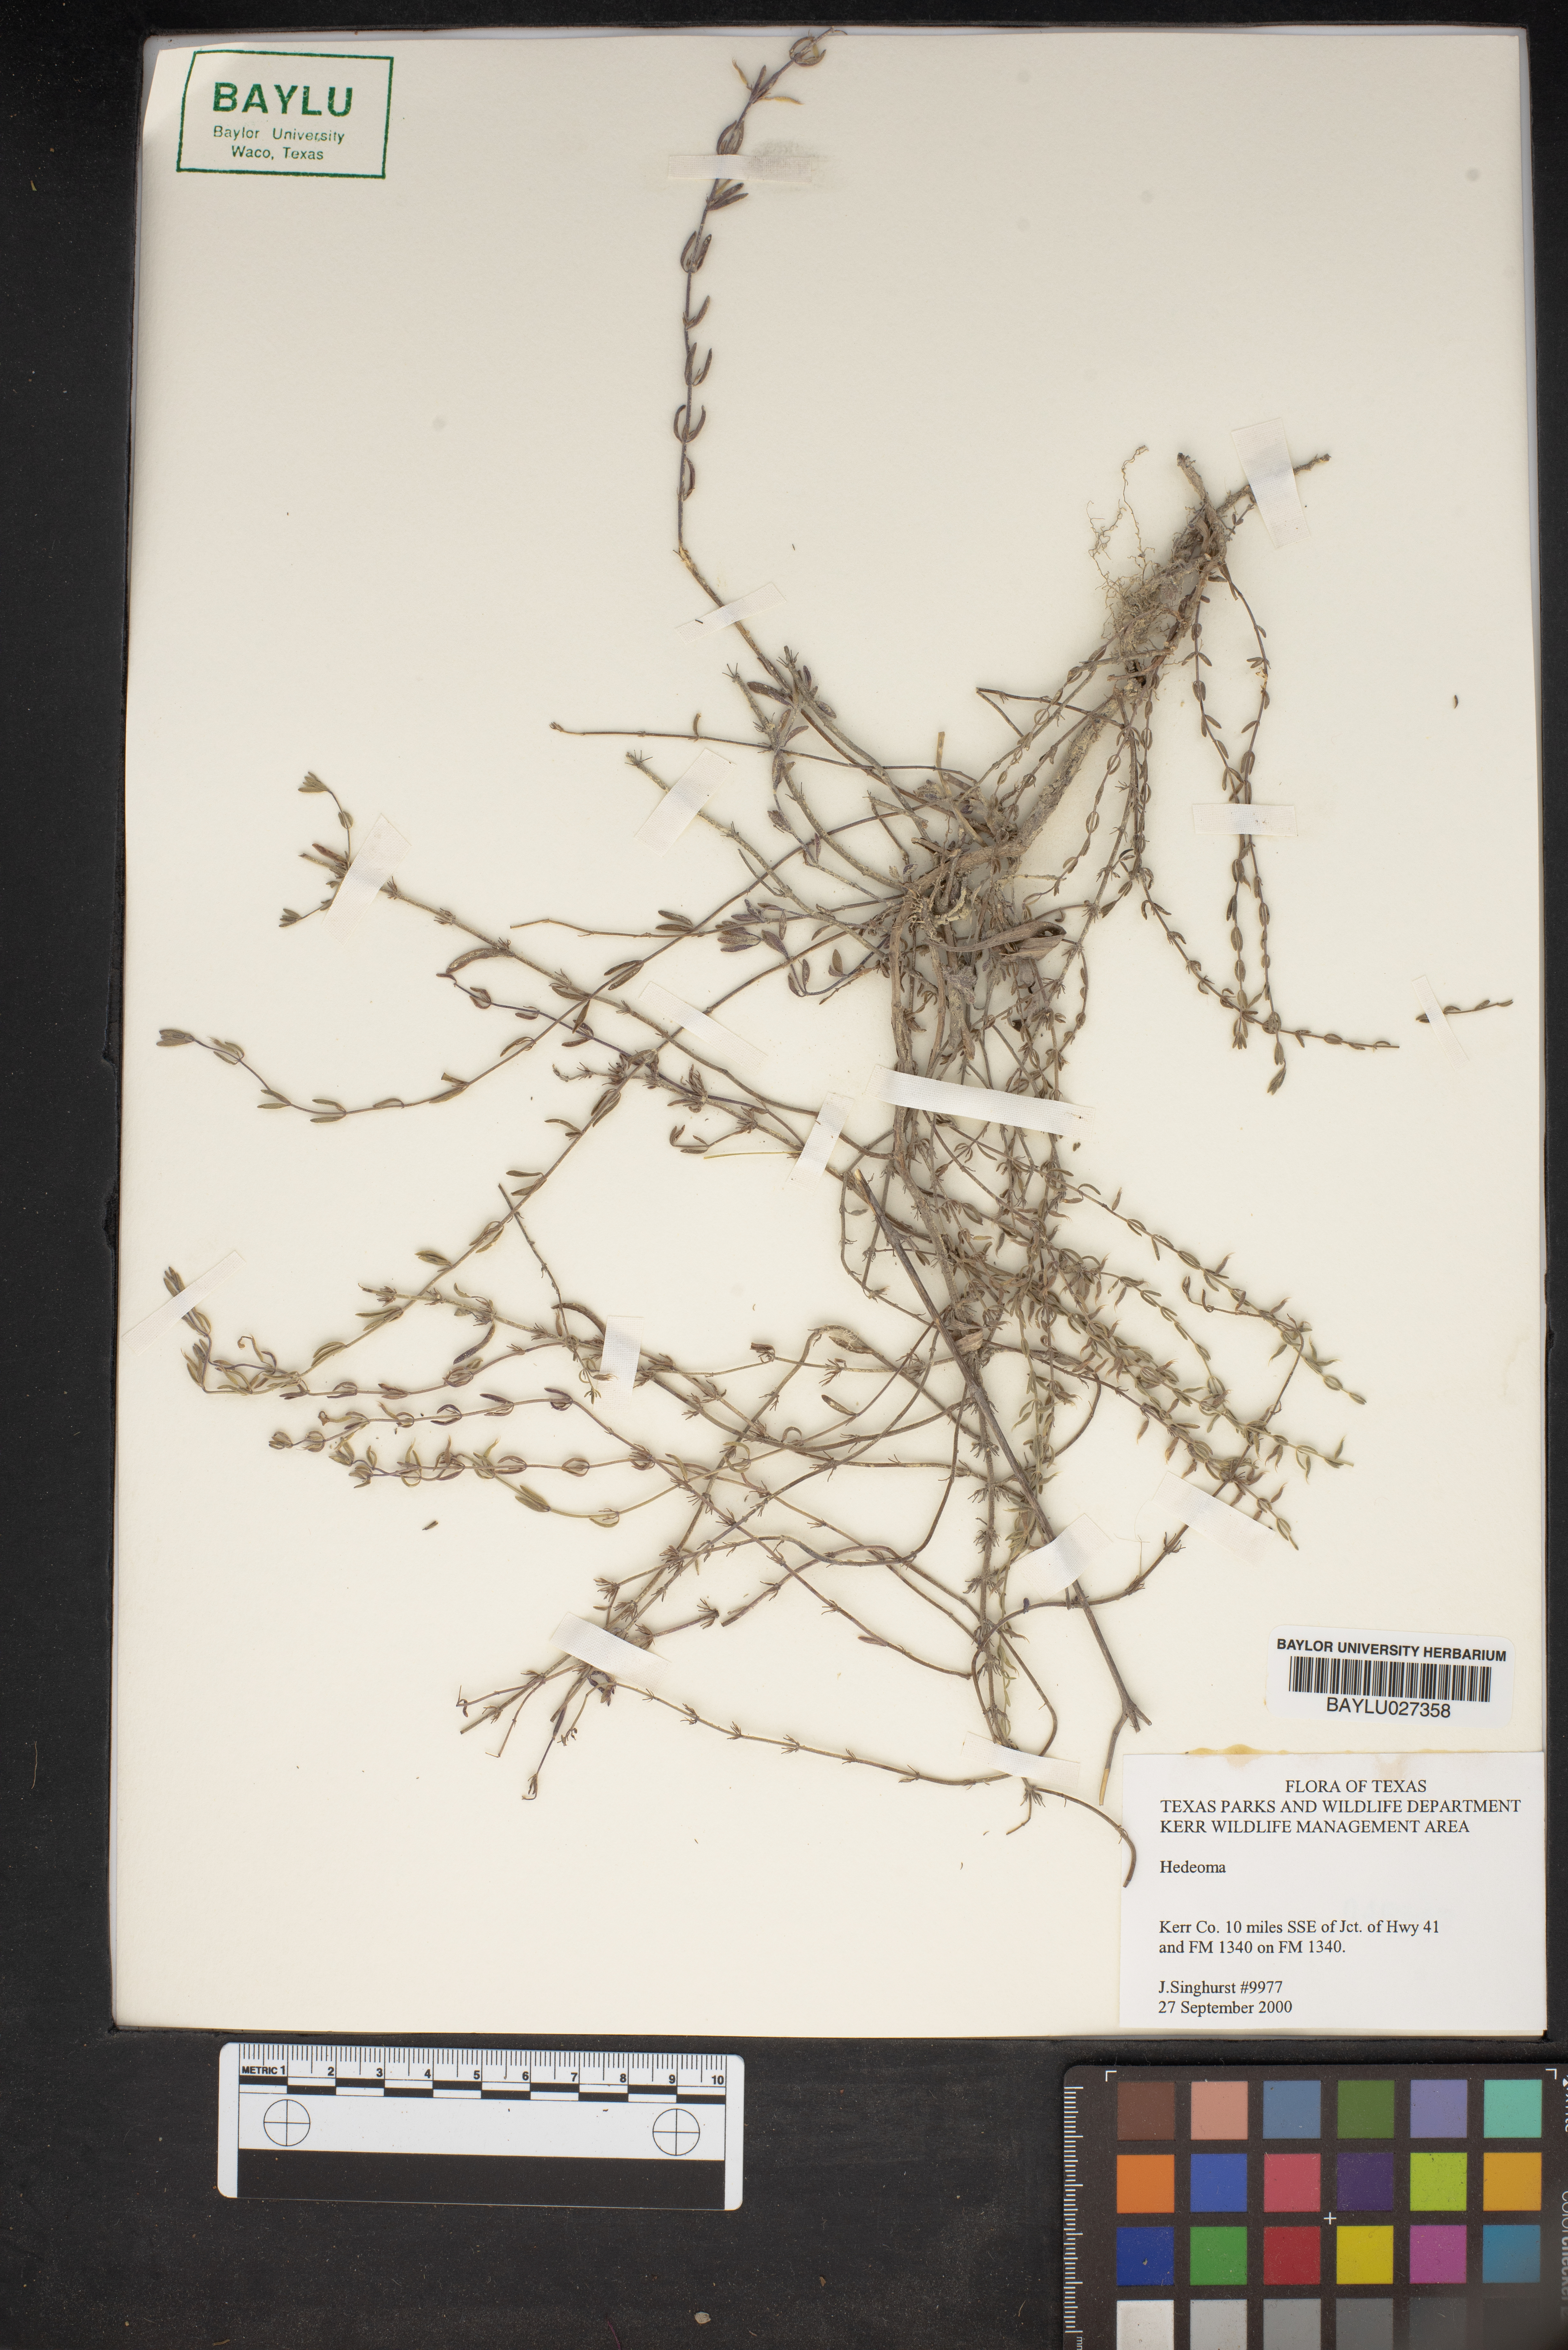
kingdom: Plantae
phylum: Tracheophyta
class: Magnoliopsida
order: Lamiales
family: Lamiaceae
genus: Hedeoma
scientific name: Hedeoma
